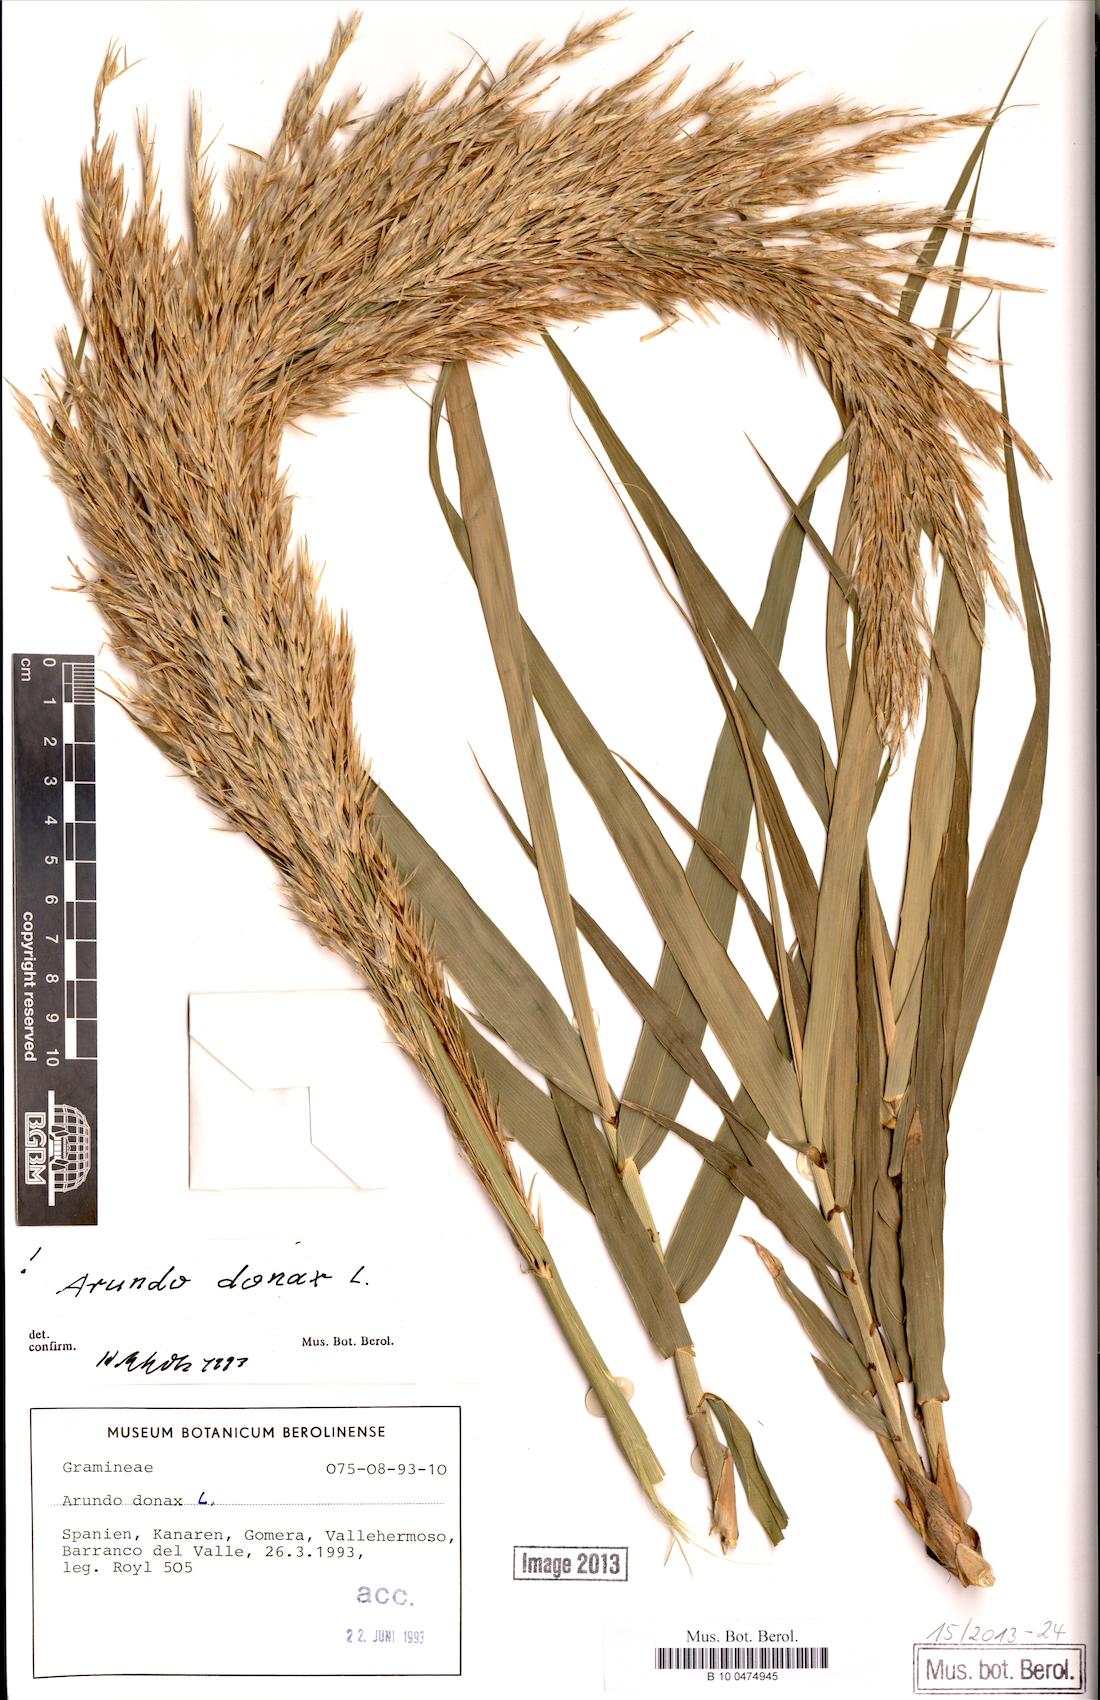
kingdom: Plantae
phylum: Tracheophyta
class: Liliopsida
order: Poales
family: Poaceae
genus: Arundo
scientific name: Arundo donax
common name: Giant reed
